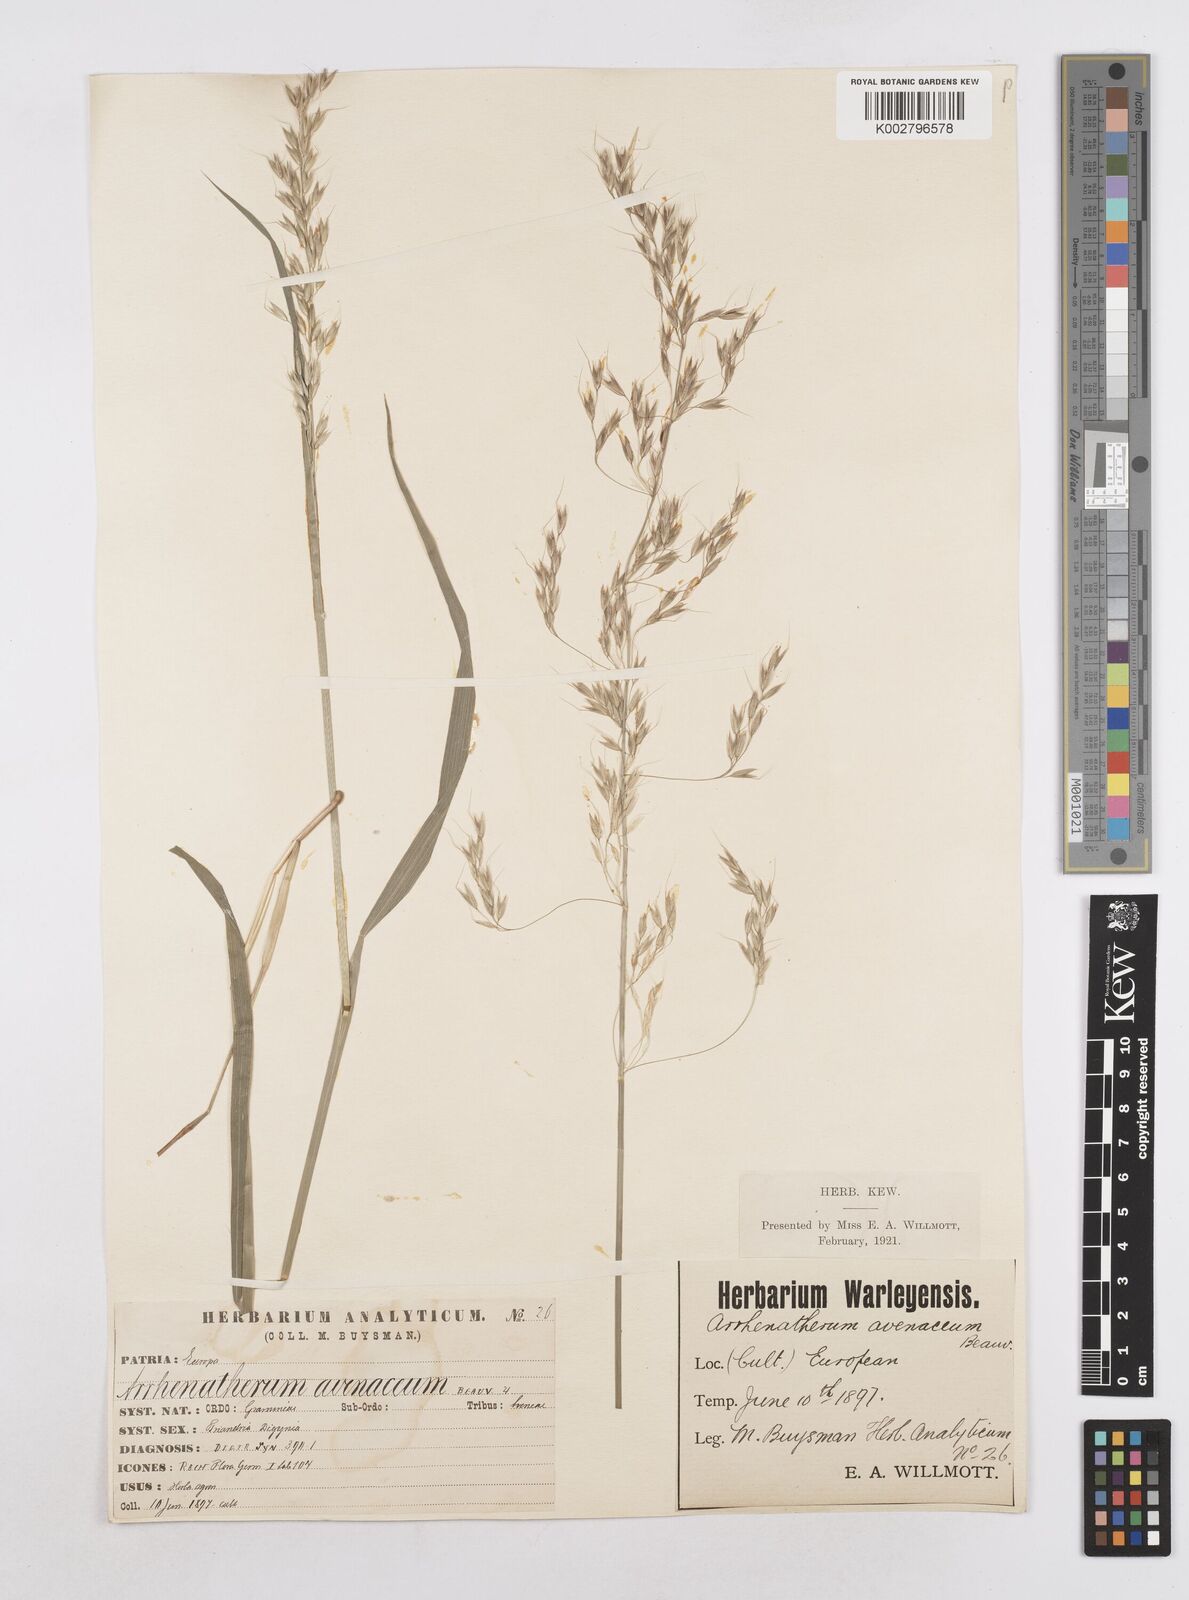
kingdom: Plantae
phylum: Tracheophyta
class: Liliopsida
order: Poales
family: Poaceae
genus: Arrhenatherum
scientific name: Arrhenatherum elatius
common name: Tall oatgrass
